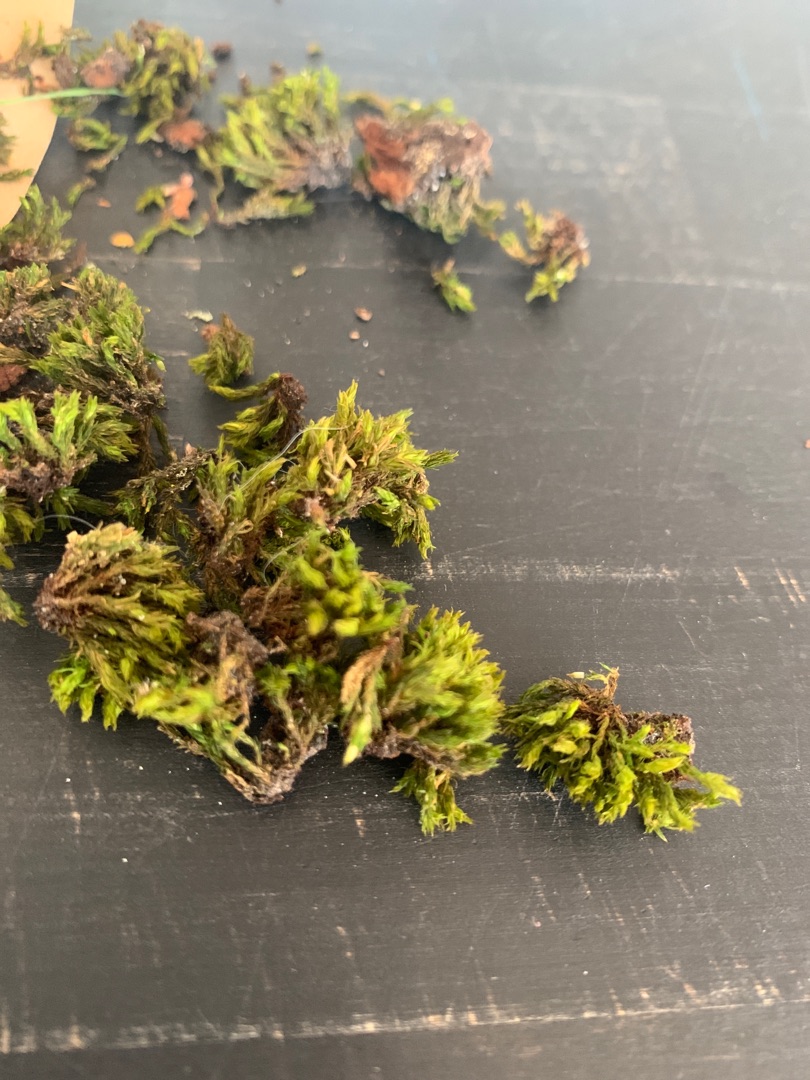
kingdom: Plantae
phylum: Bryophyta
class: Bryopsida
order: Orthotrichales
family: Orthotrichaceae
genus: Lewinskya
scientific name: Lewinskya affinis
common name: Almindelig furehætte
